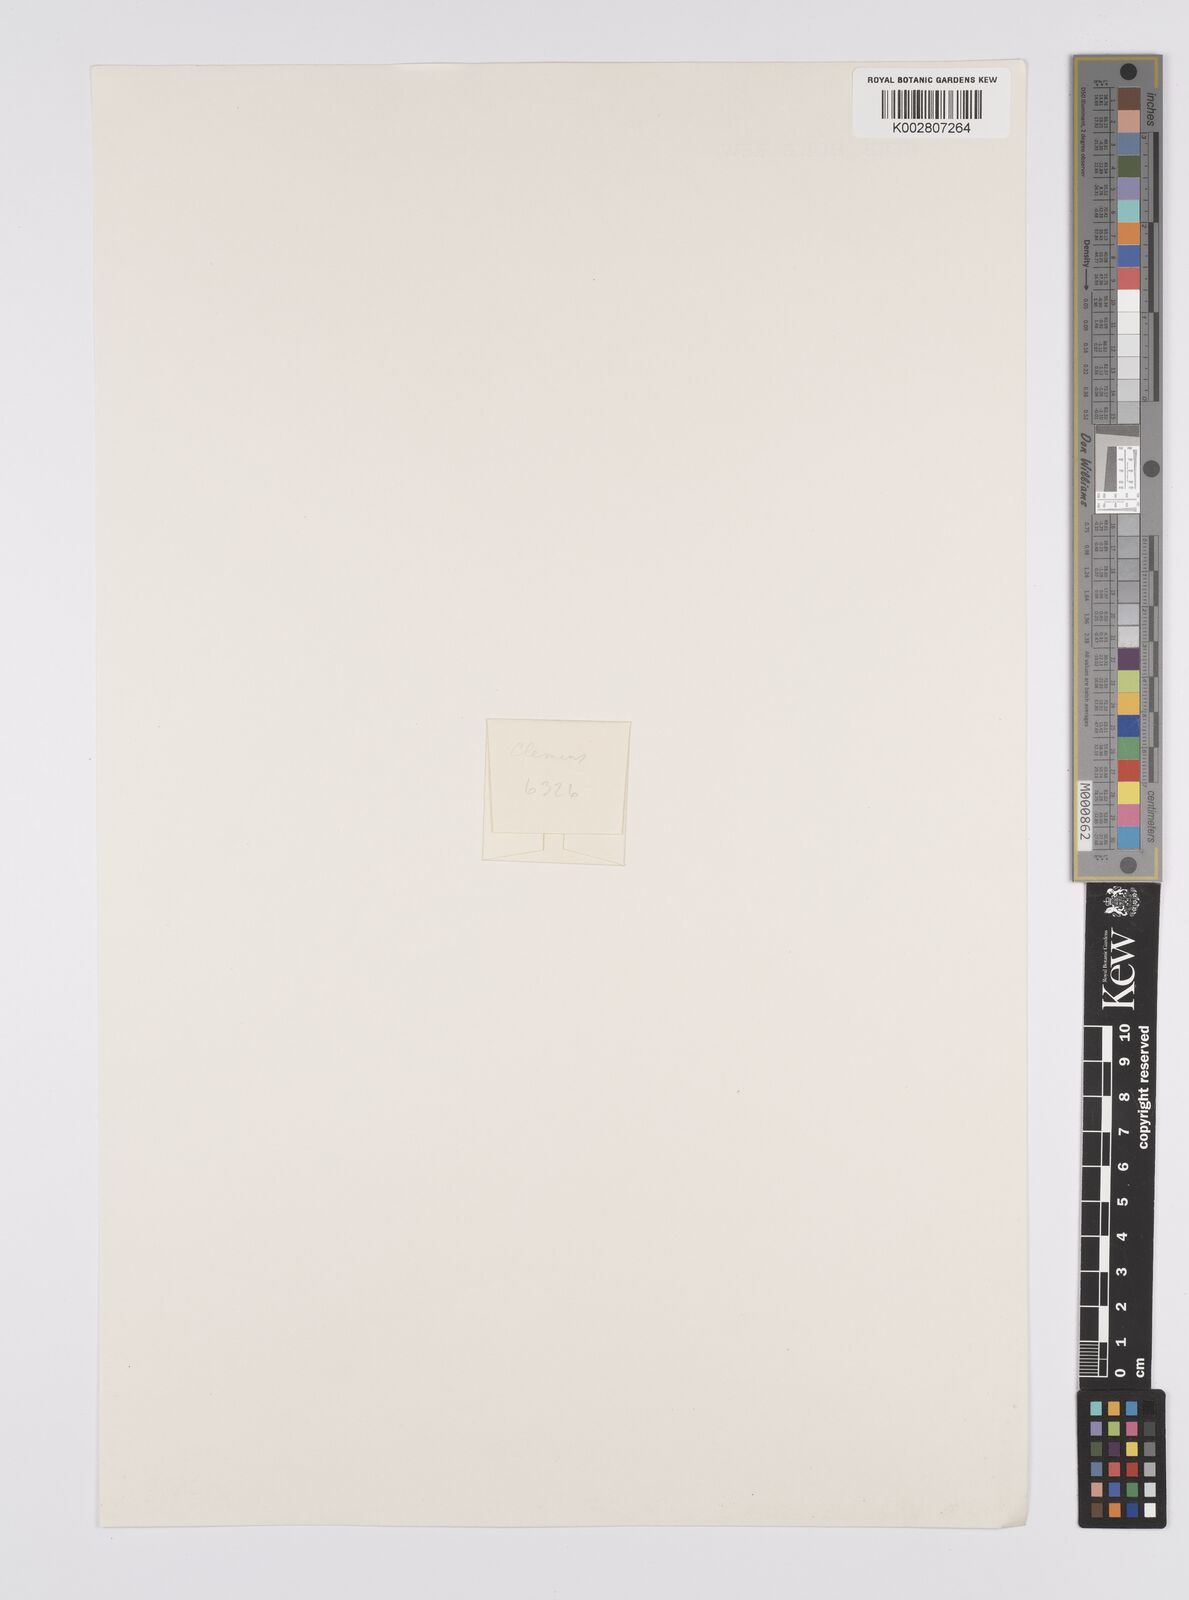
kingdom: Plantae
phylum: Tracheophyta
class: Liliopsida
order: Poales
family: Cyperaceae
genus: Carex
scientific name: Carex
